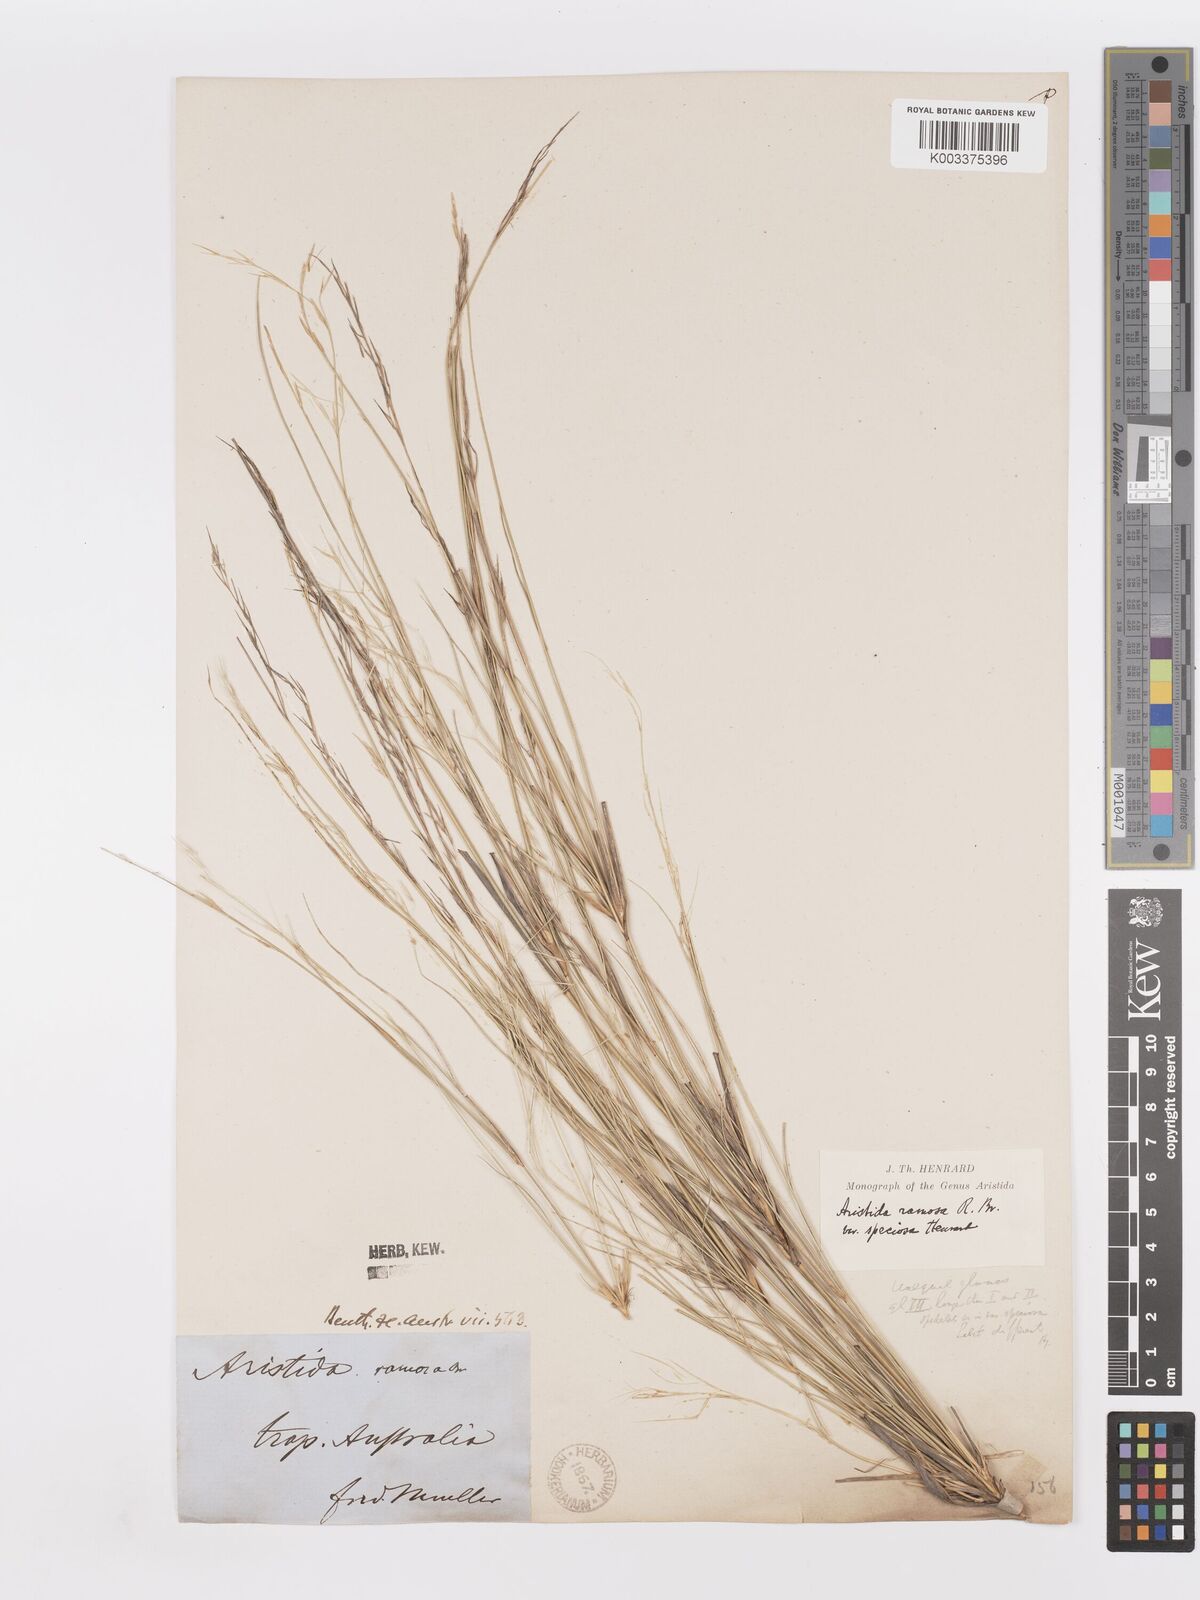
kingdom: Plantae
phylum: Tracheophyta
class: Liliopsida
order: Poales
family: Poaceae
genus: Aristida
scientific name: Aristida ramosa
